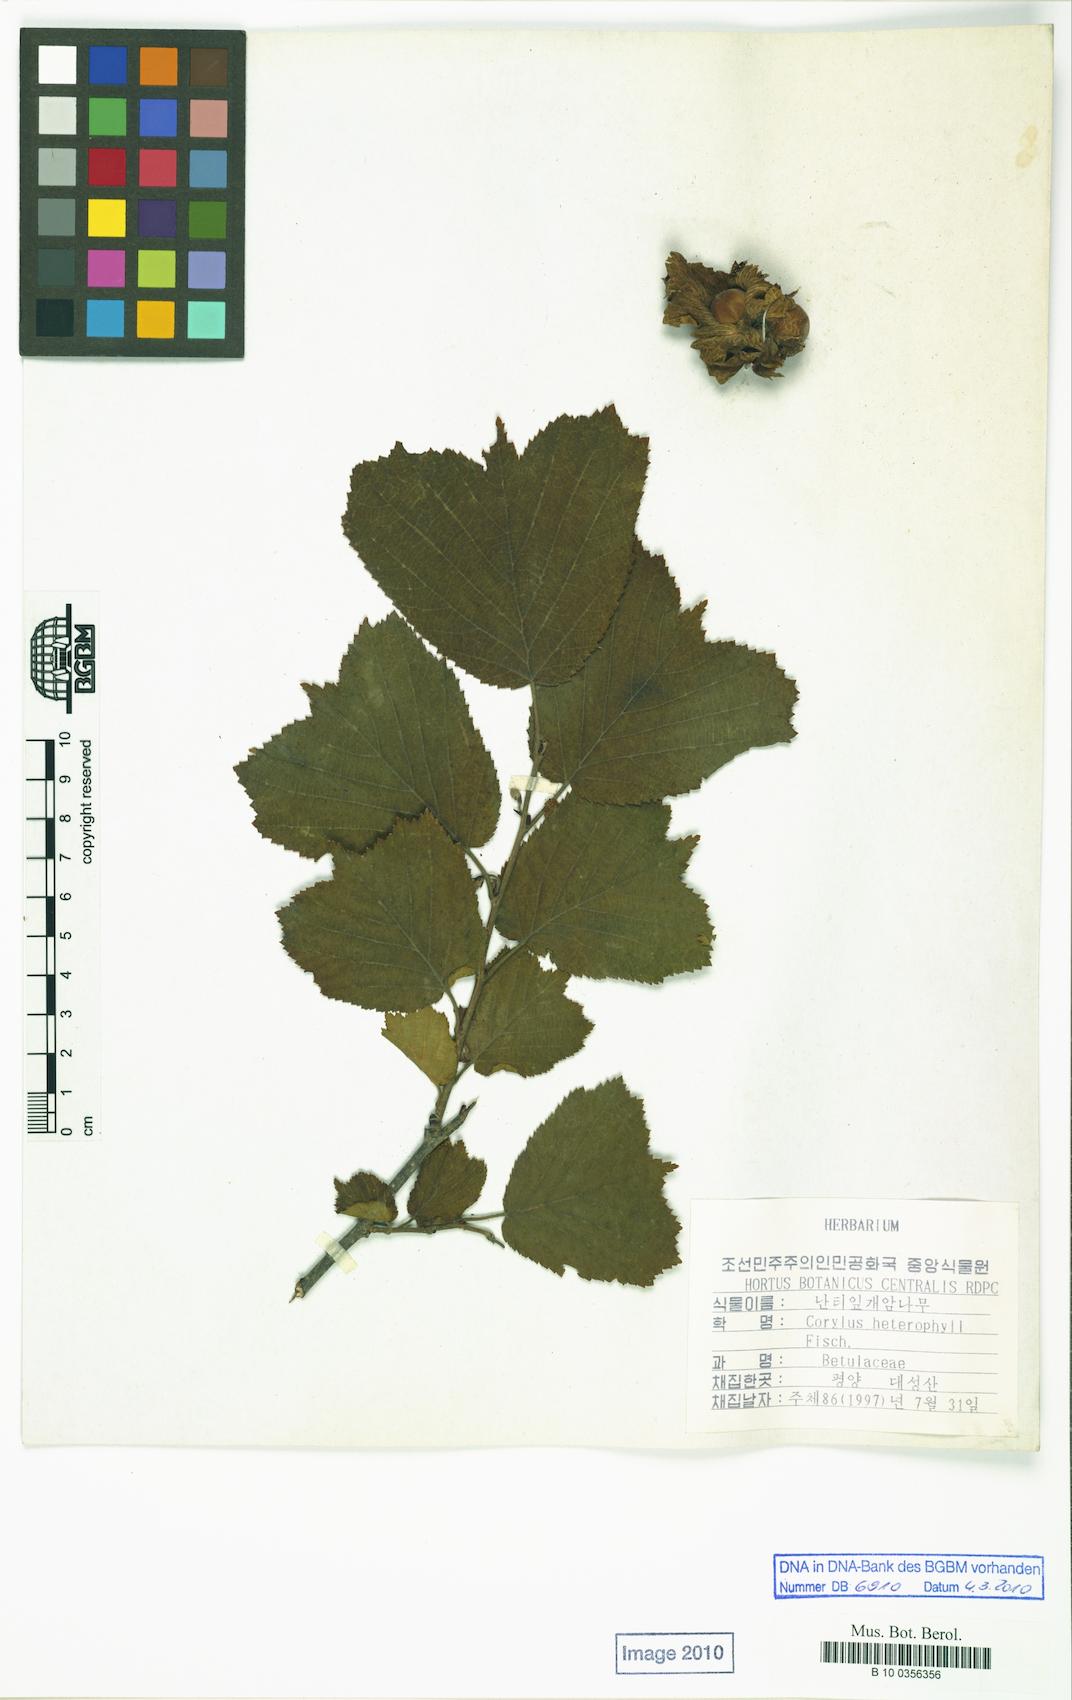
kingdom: Plantae
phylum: Tracheophyta
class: Magnoliopsida
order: Fagales
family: Betulaceae
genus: Corylus
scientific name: Corylus heterophylla
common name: Siberian hazelnut
